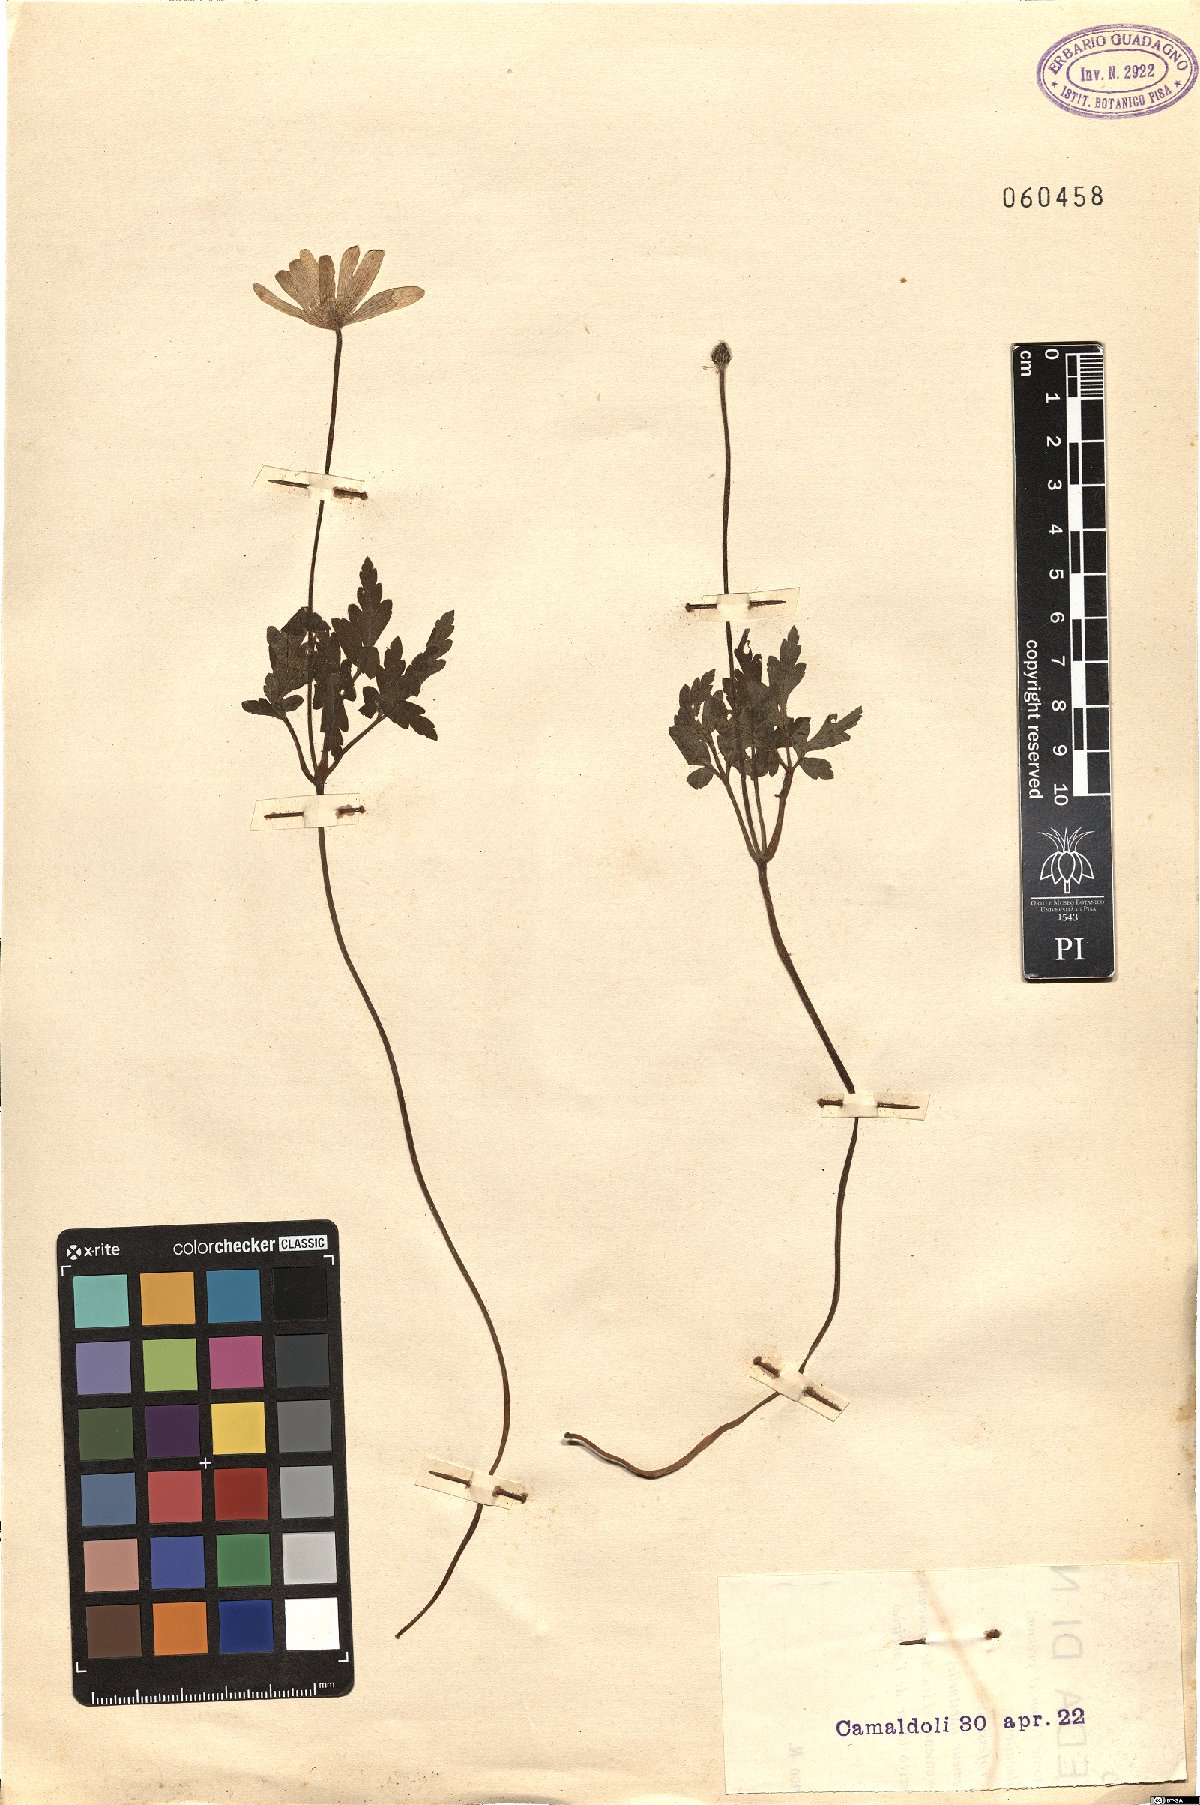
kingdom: Plantae
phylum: Tracheophyta
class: Magnoliopsida
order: Ranunculales
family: Ranunculaceae
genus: Anemone
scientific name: Anemone apennina
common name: Blue anemone
